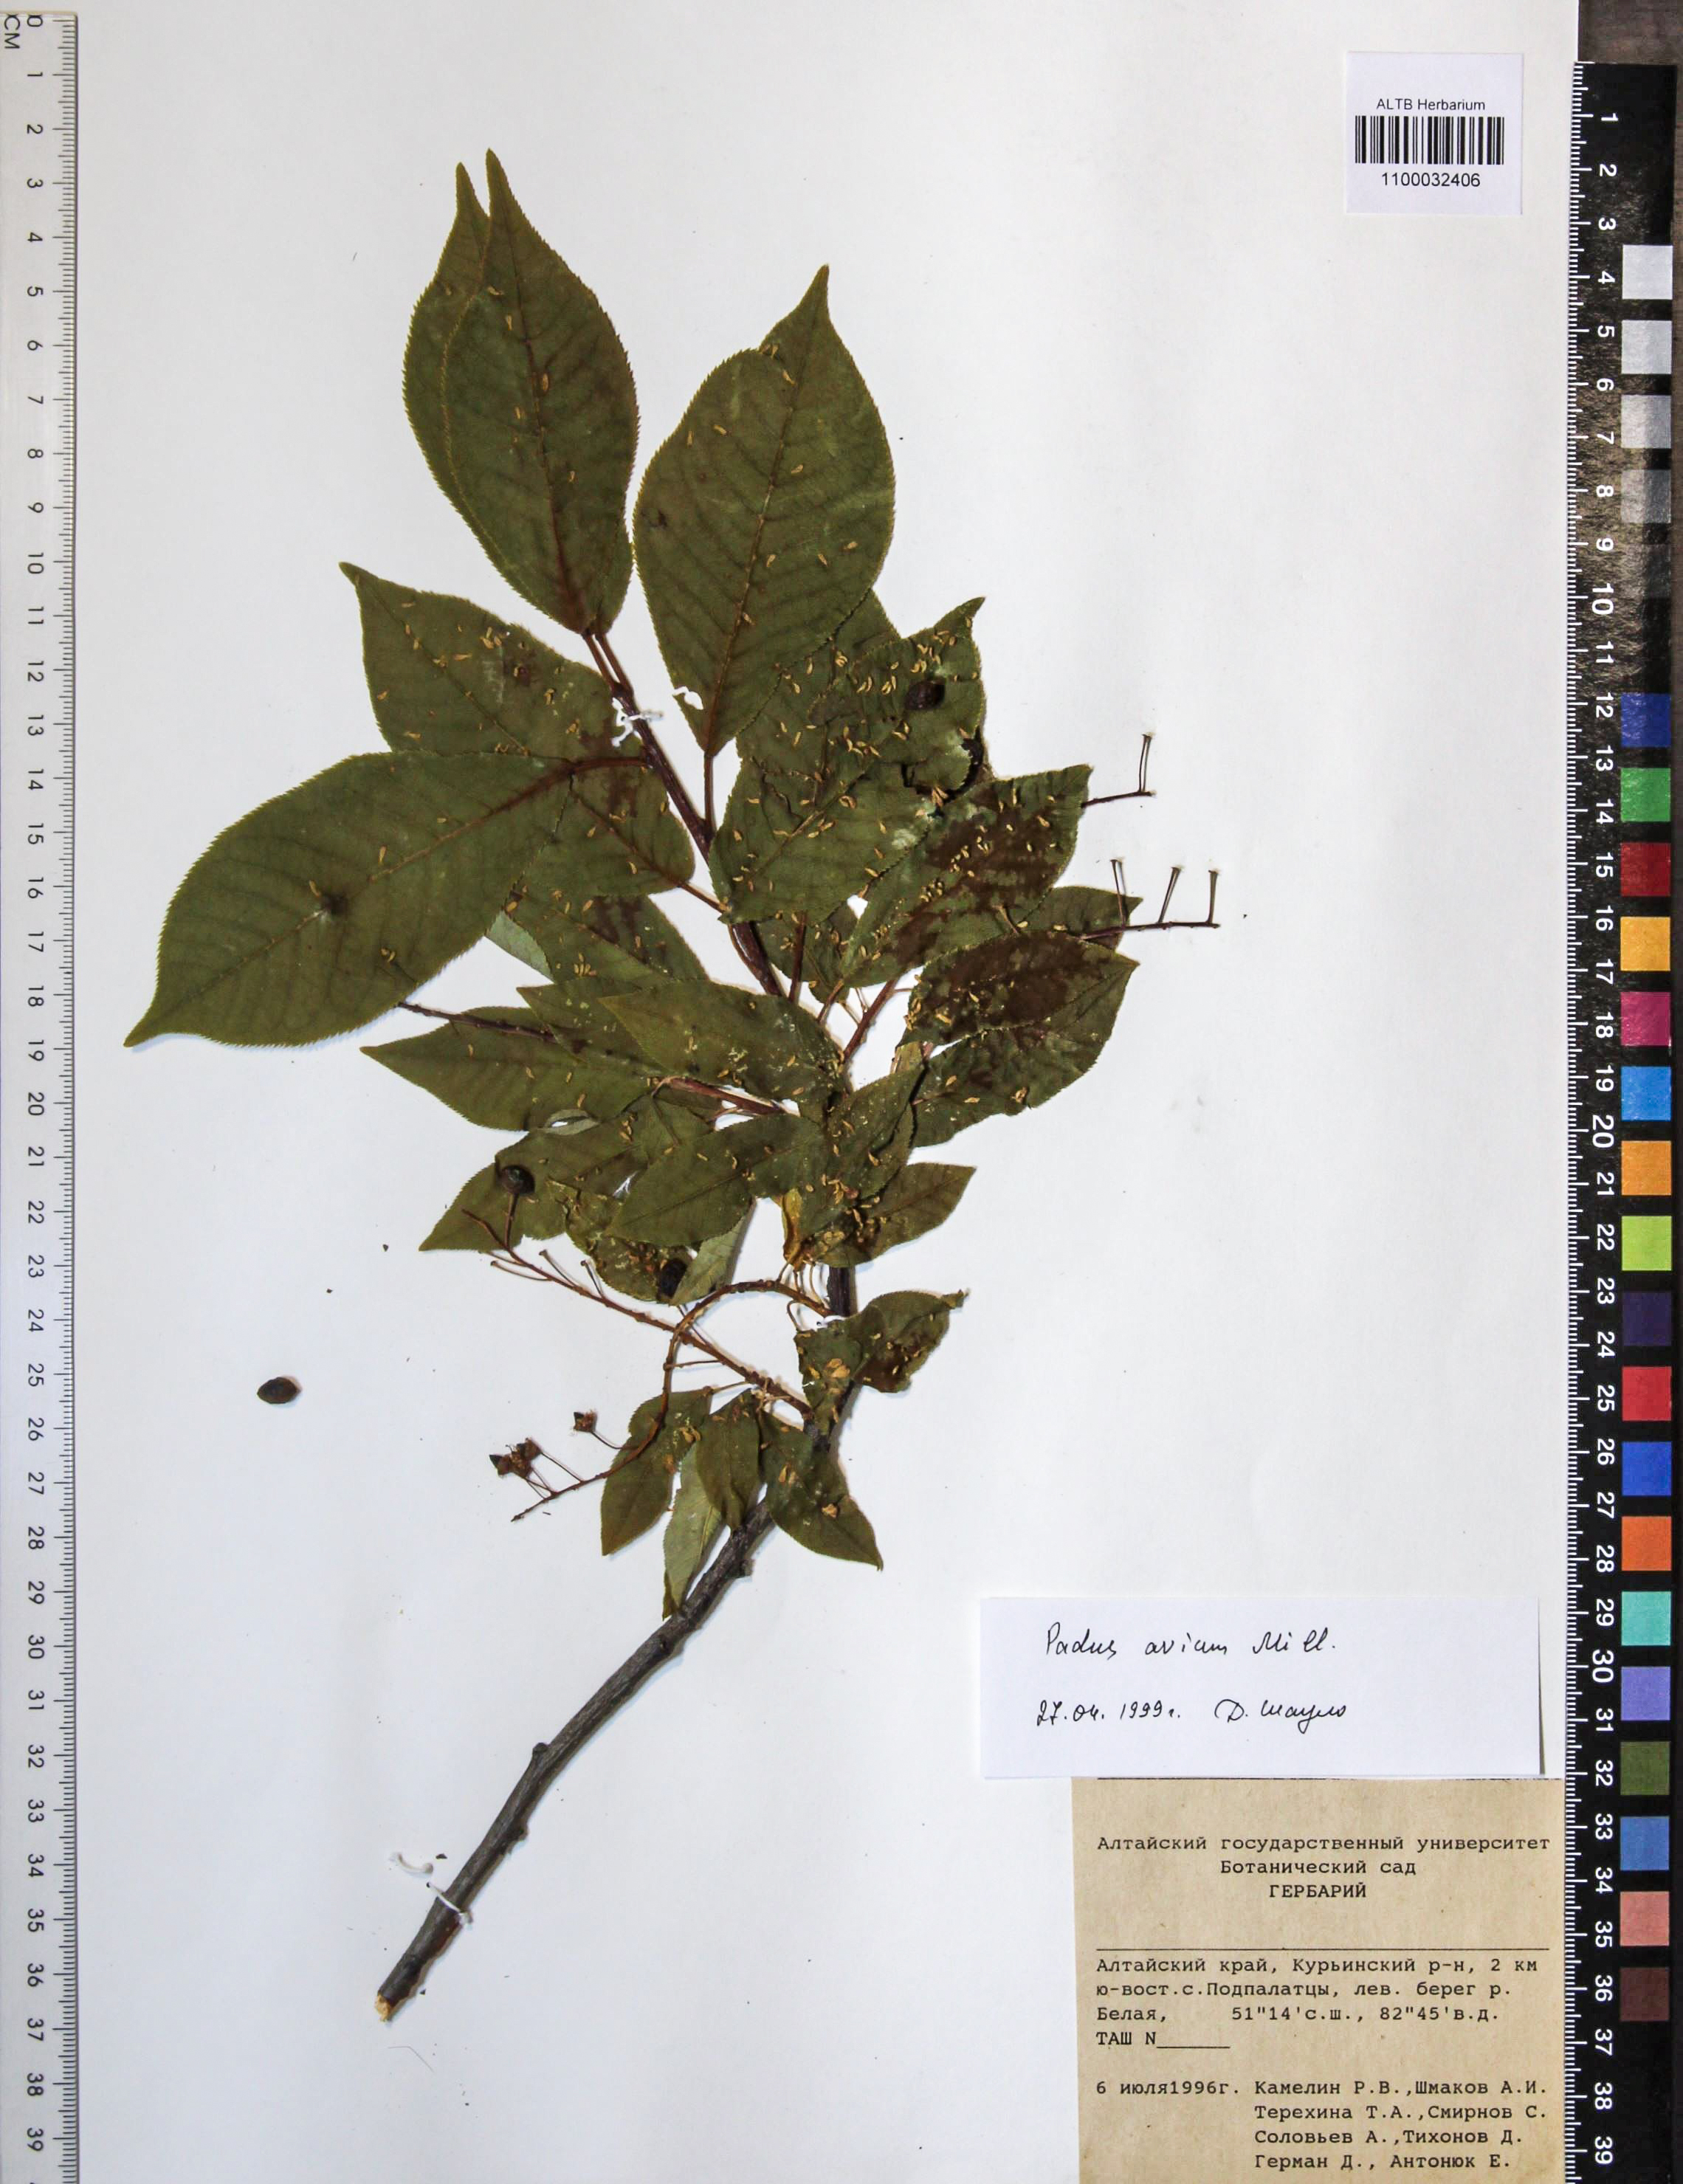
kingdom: Plantae
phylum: Tracheophyta
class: Magnoliopsida
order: Rosales
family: Rosaceae
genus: Prunus
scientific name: Prunus padus
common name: Bird cherry
